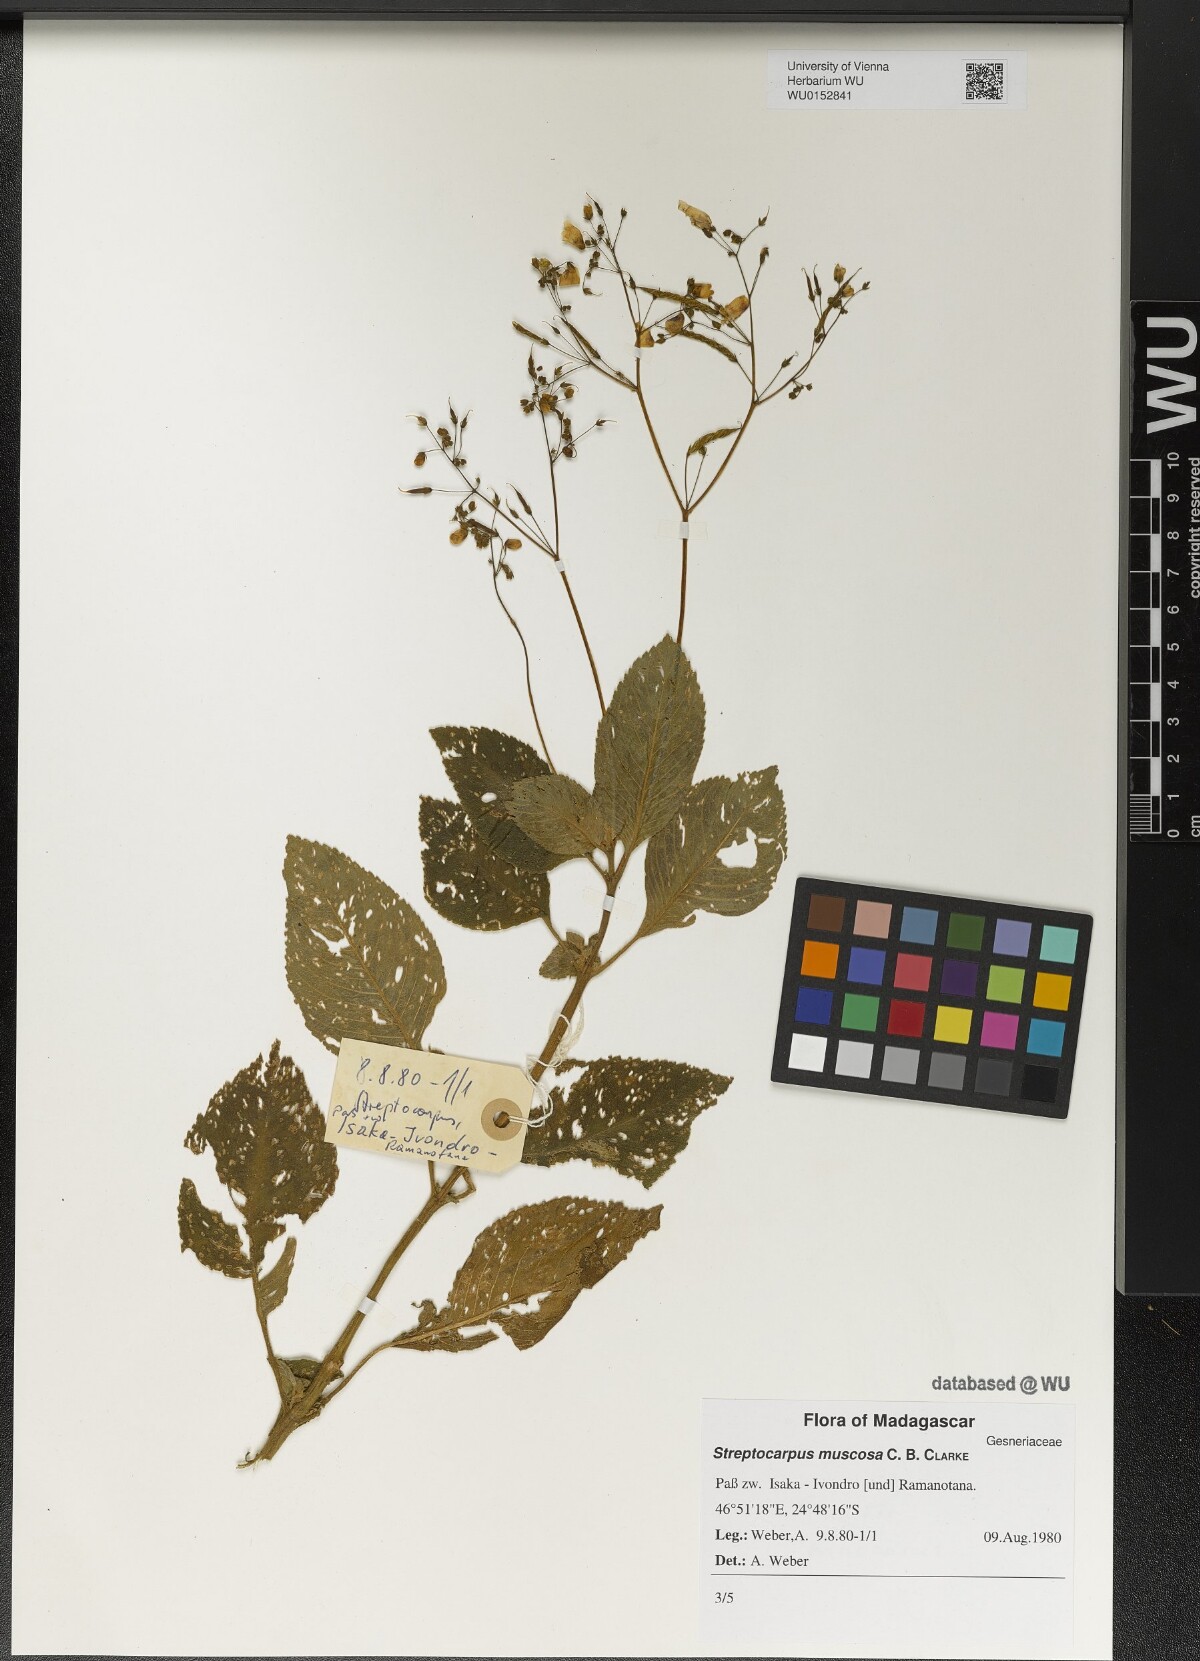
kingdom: Plantae
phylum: Tracheophyta
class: Magnoliopsida
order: Lamiales
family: Gesneriaceae
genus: Streptocarpus
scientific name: Streptocarpus muscosa
